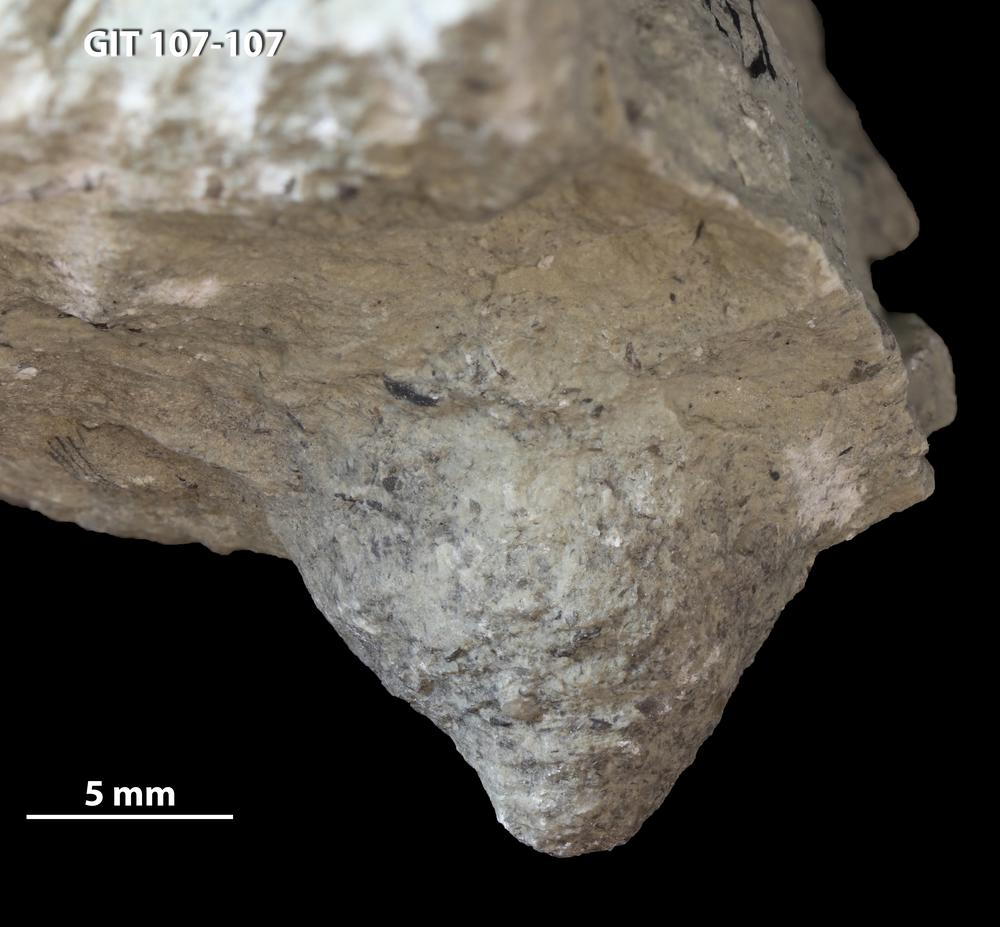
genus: Amphorichnus
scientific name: Amphorichnus
